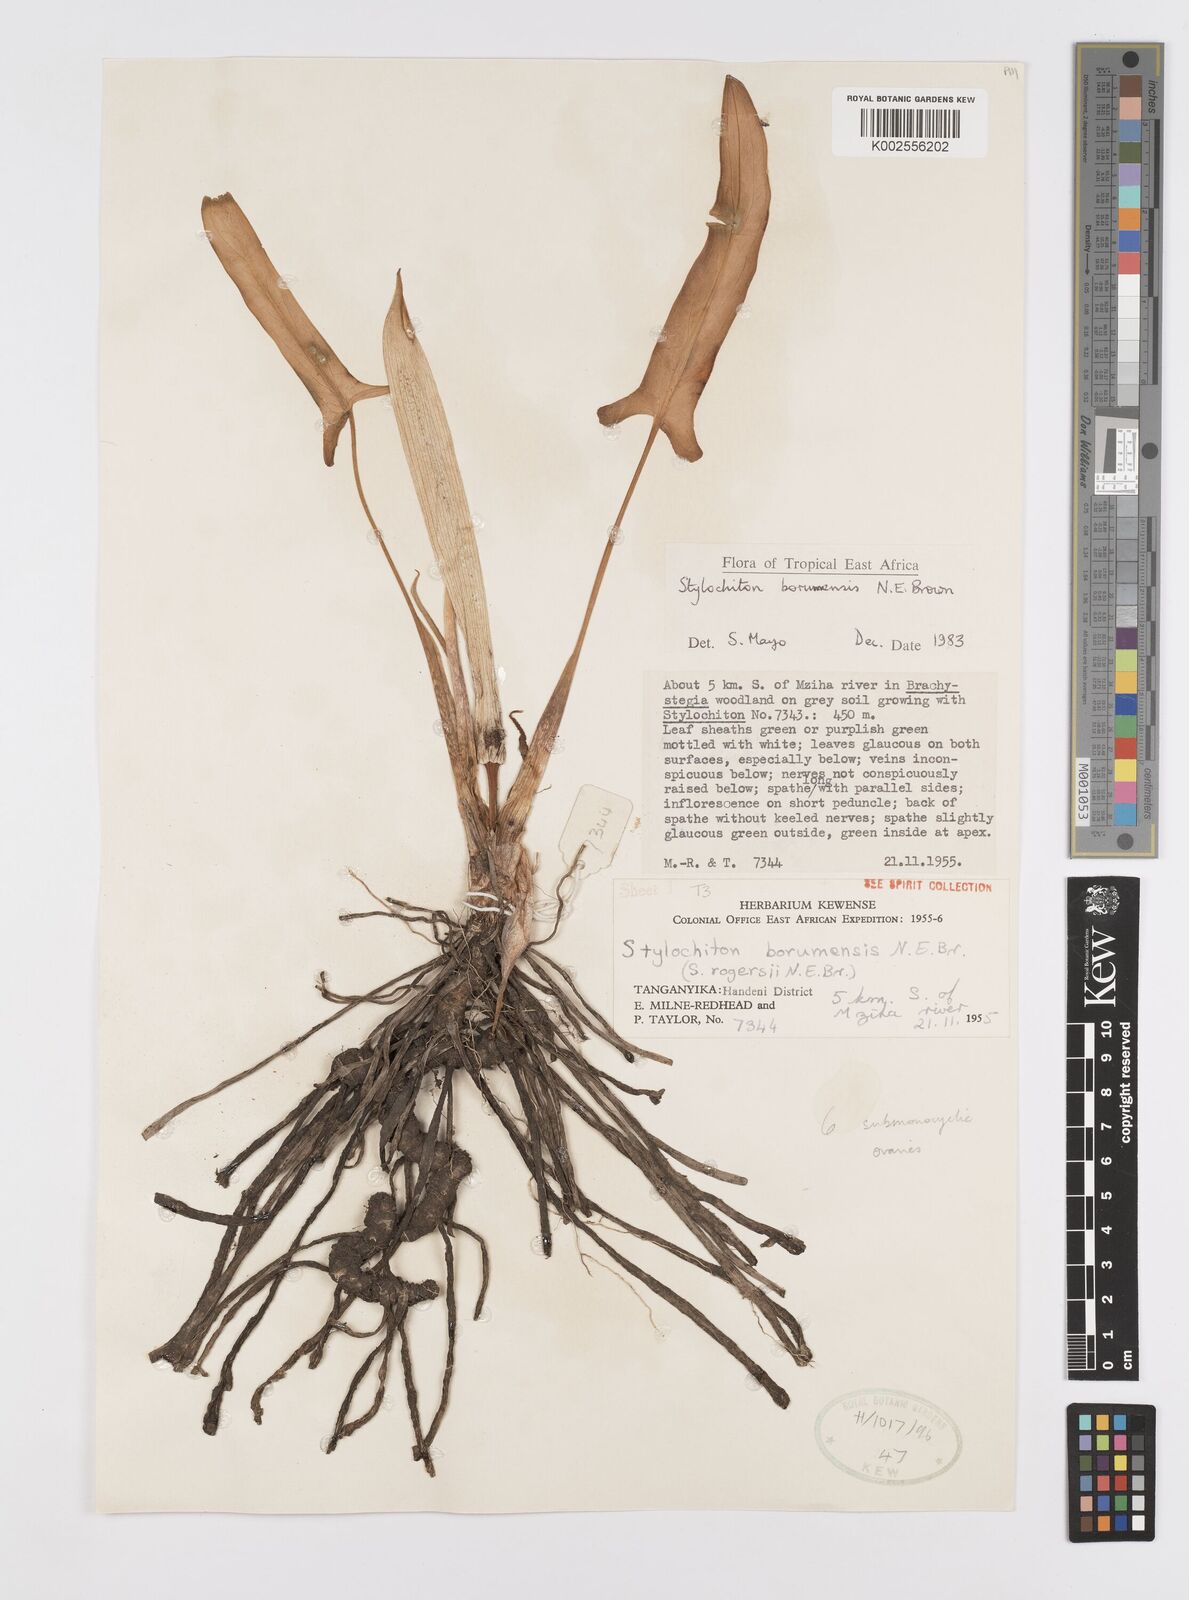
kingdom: Plantae
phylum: Tracheophyta
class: Liliopsida
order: Alismatales
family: Araceae
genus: Stylochaeton
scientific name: Stylochaeton borumense
